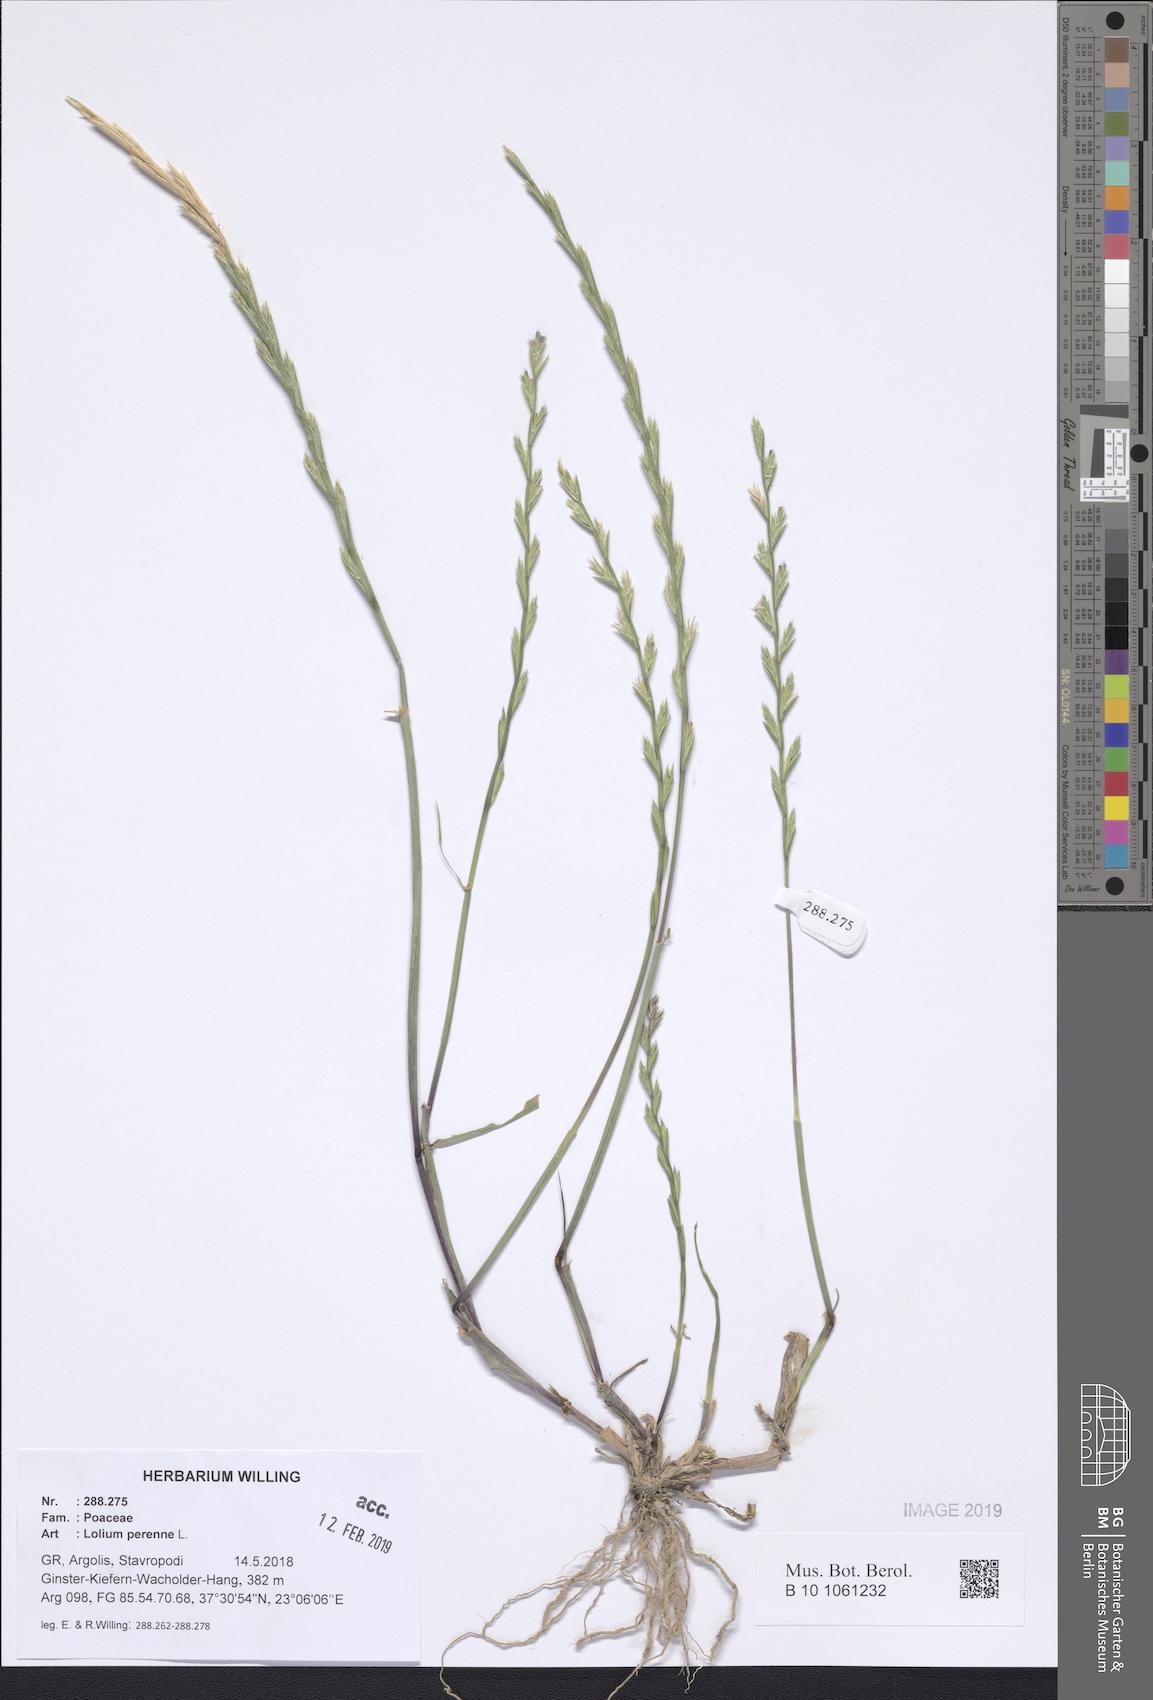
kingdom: Plantae
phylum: Tracheophyta
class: Liliopsida
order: Poales
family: Poaceae
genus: Lolium
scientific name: Lolium perenne
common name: Perennial ryegrass
